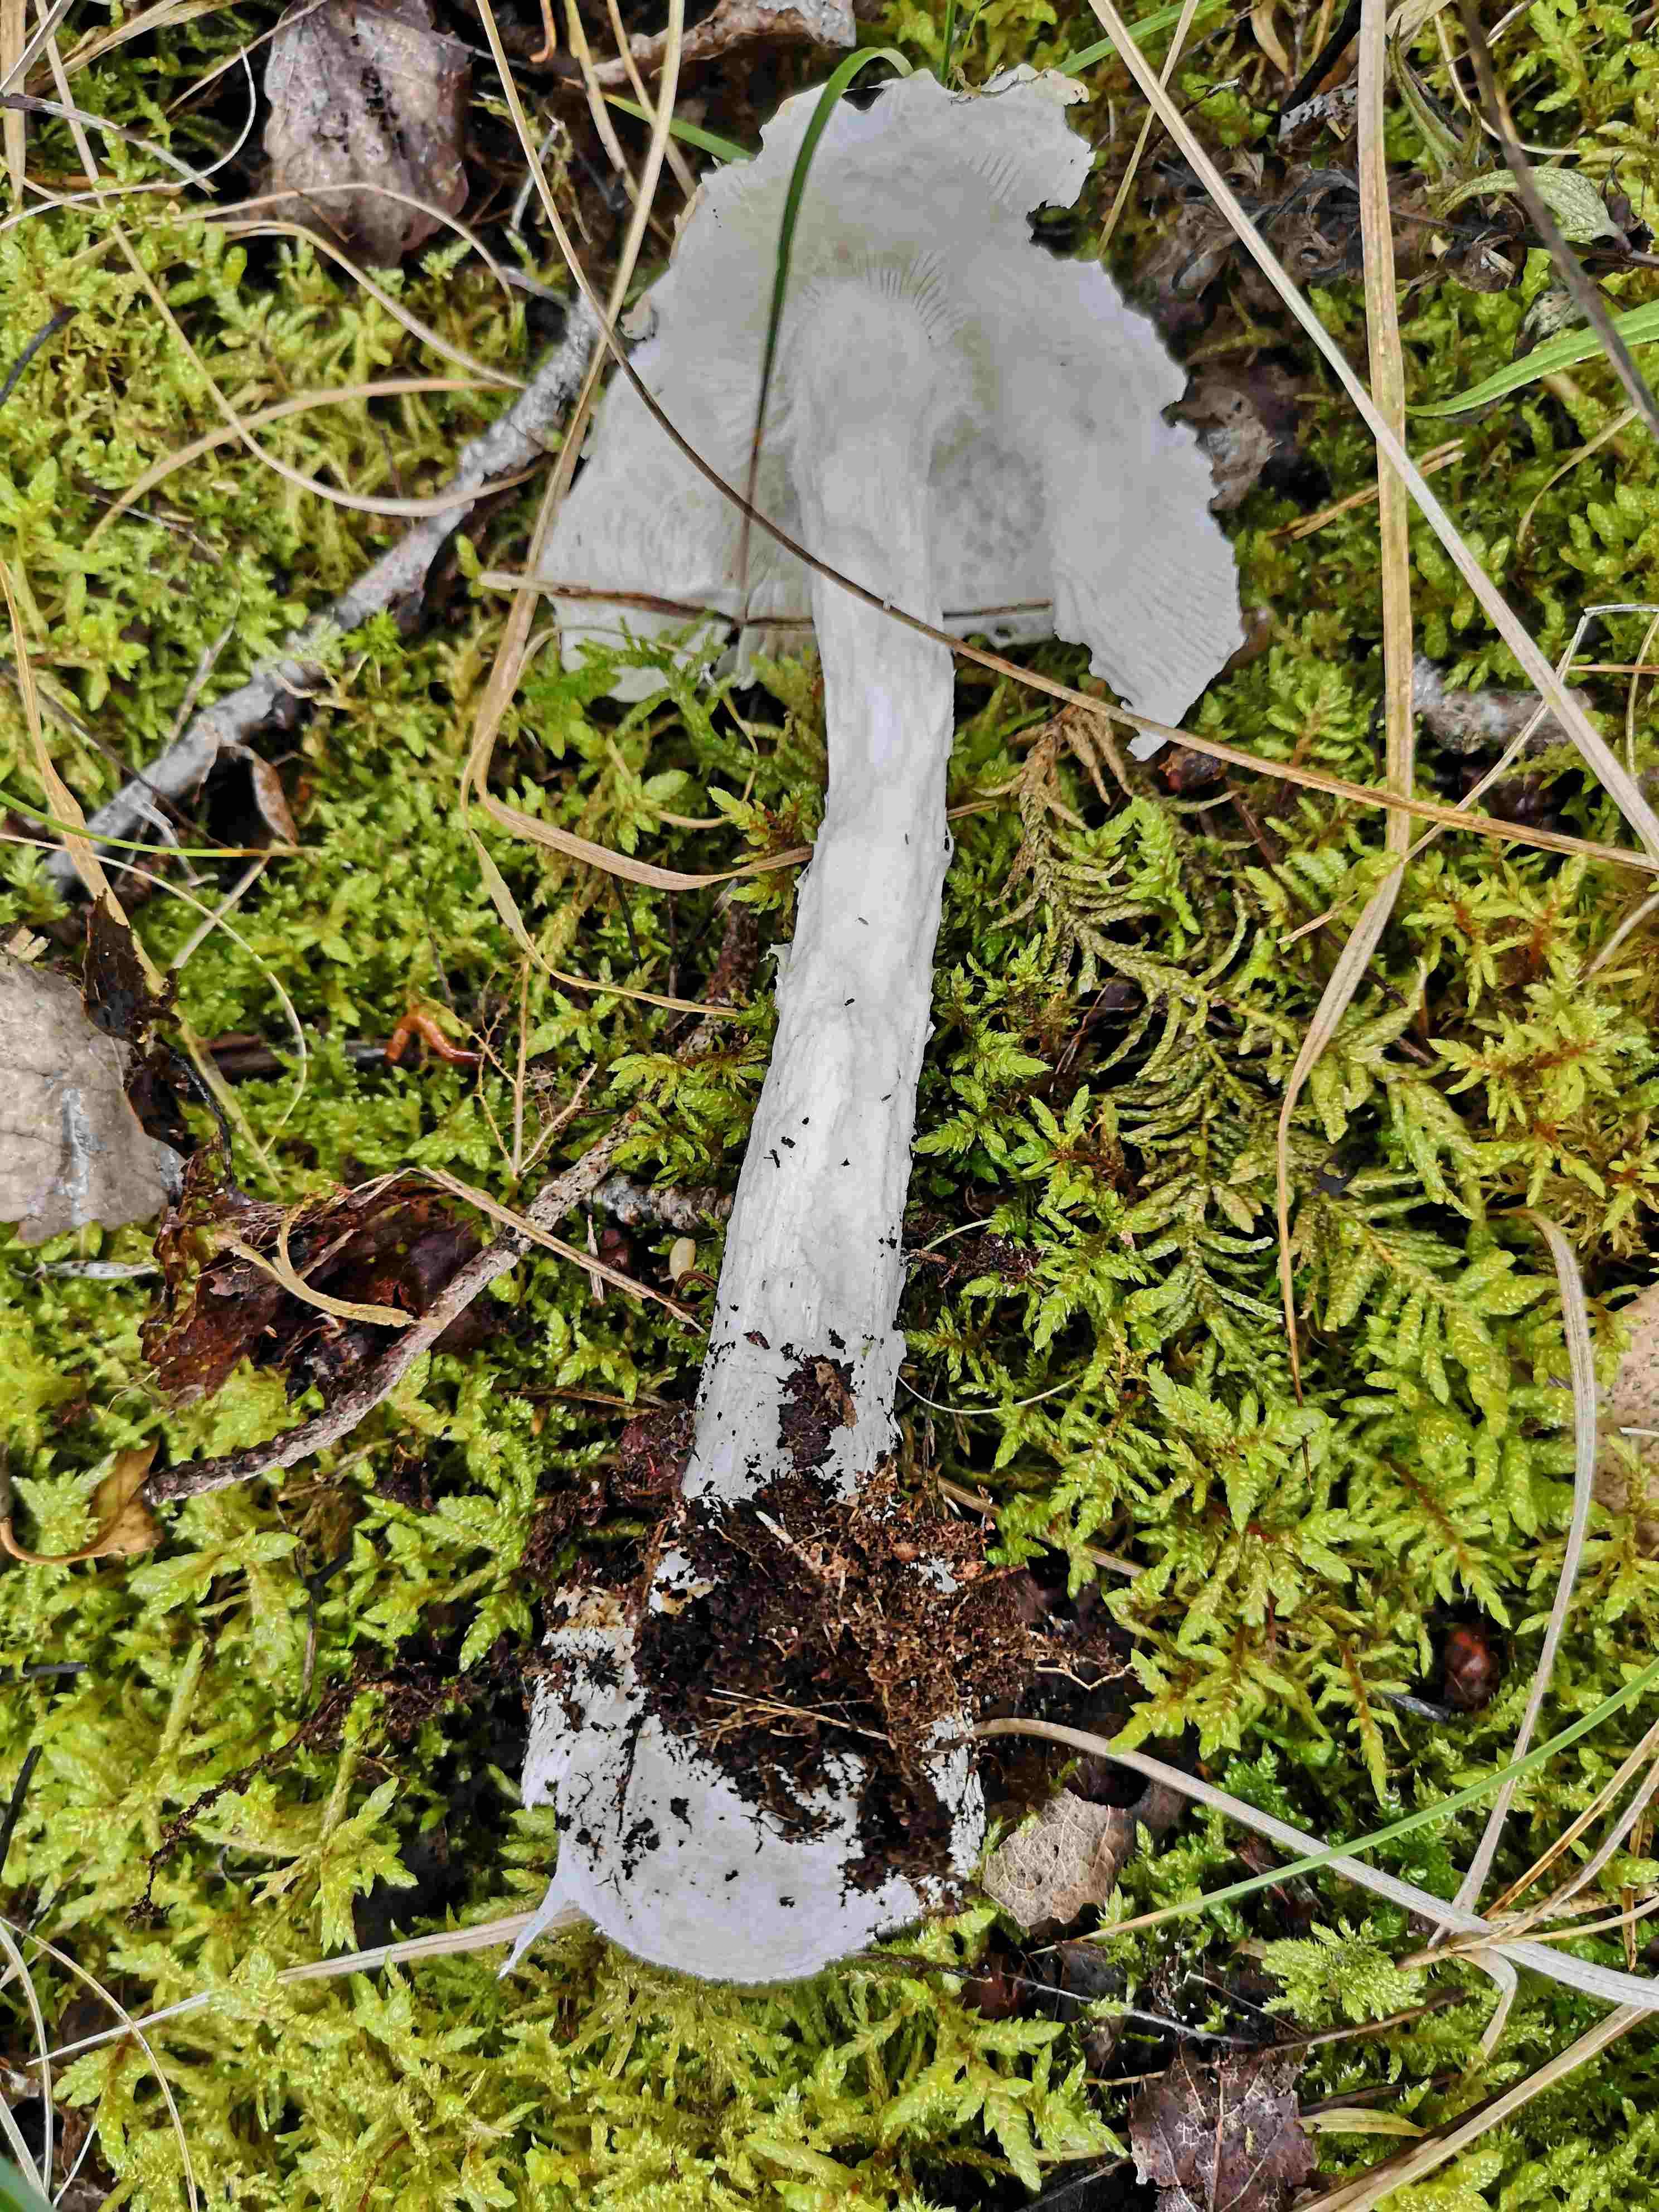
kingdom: Fungi
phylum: Basidiomycota
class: Agaricomycetes
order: Agaricales
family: Amanitaceae
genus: Amanita
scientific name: Amanita virosa
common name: snehvid fluesvamp
